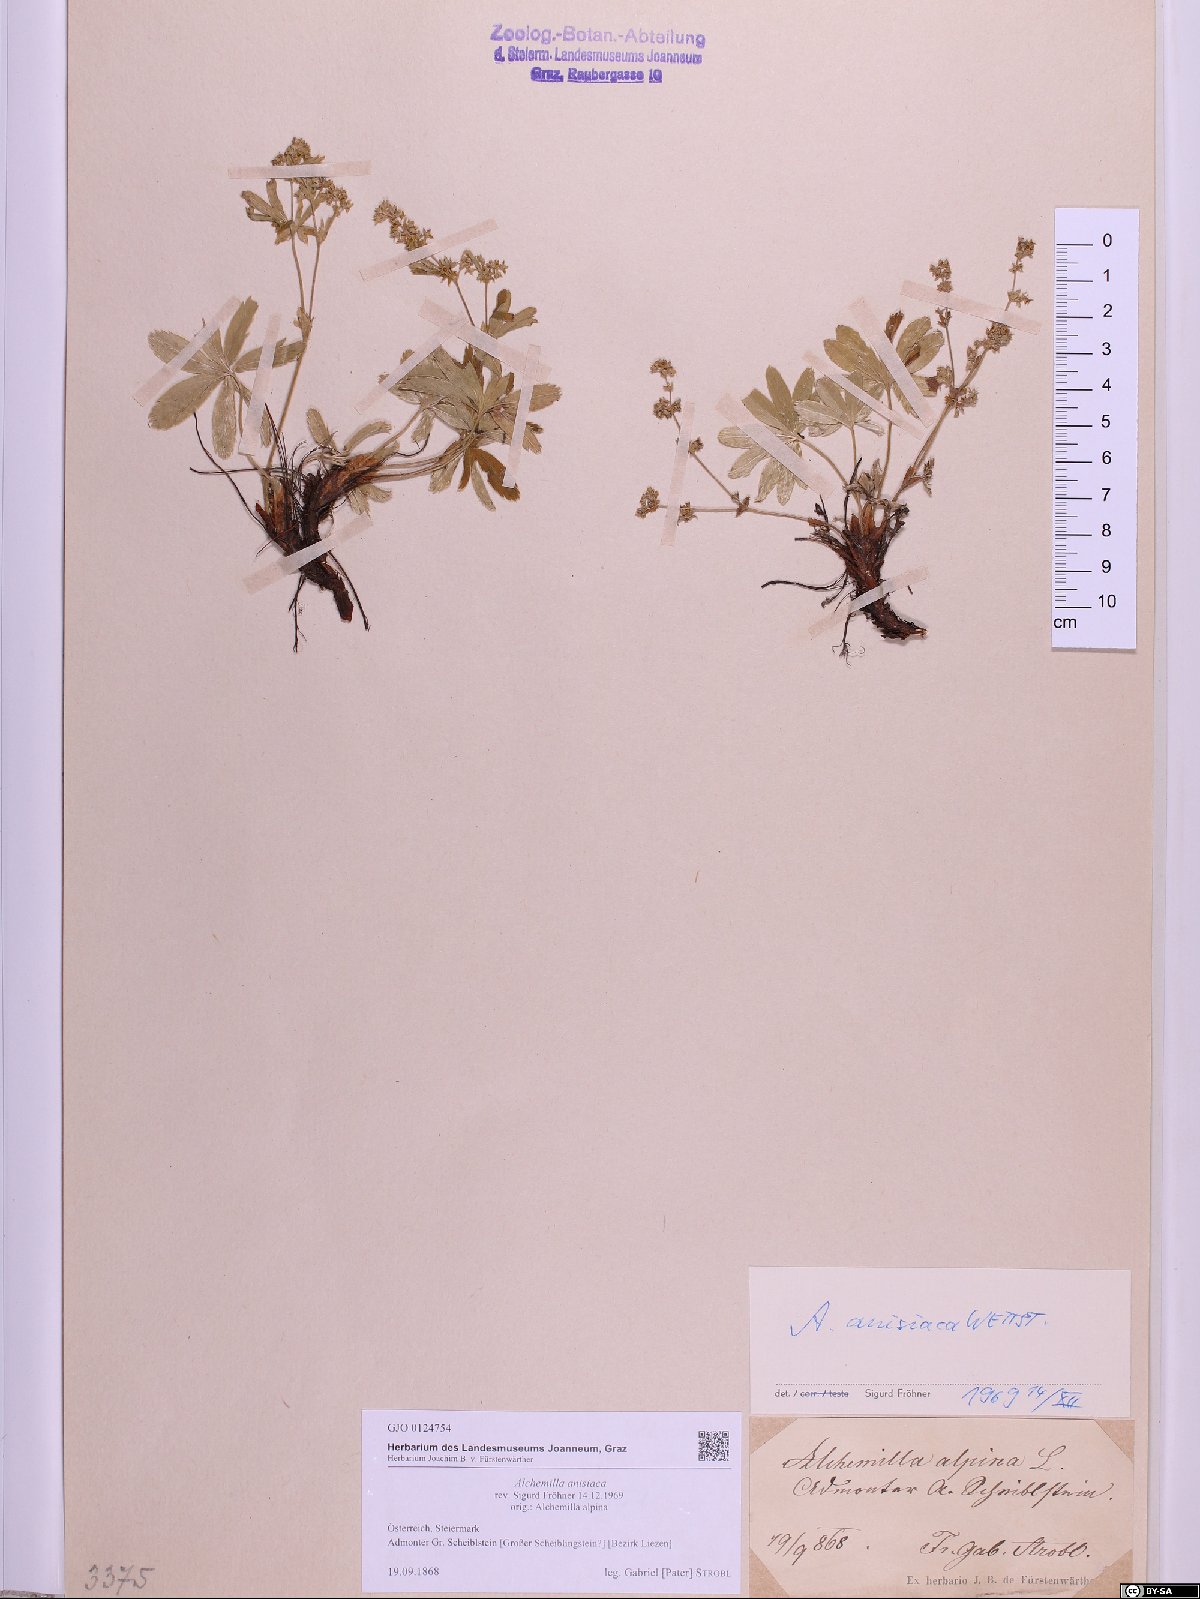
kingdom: Plantae
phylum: Tracheophyta
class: Magnoliopsida
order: Rosales
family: Rosaceae
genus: Alchemilla
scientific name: Alchemilla anisiaca
